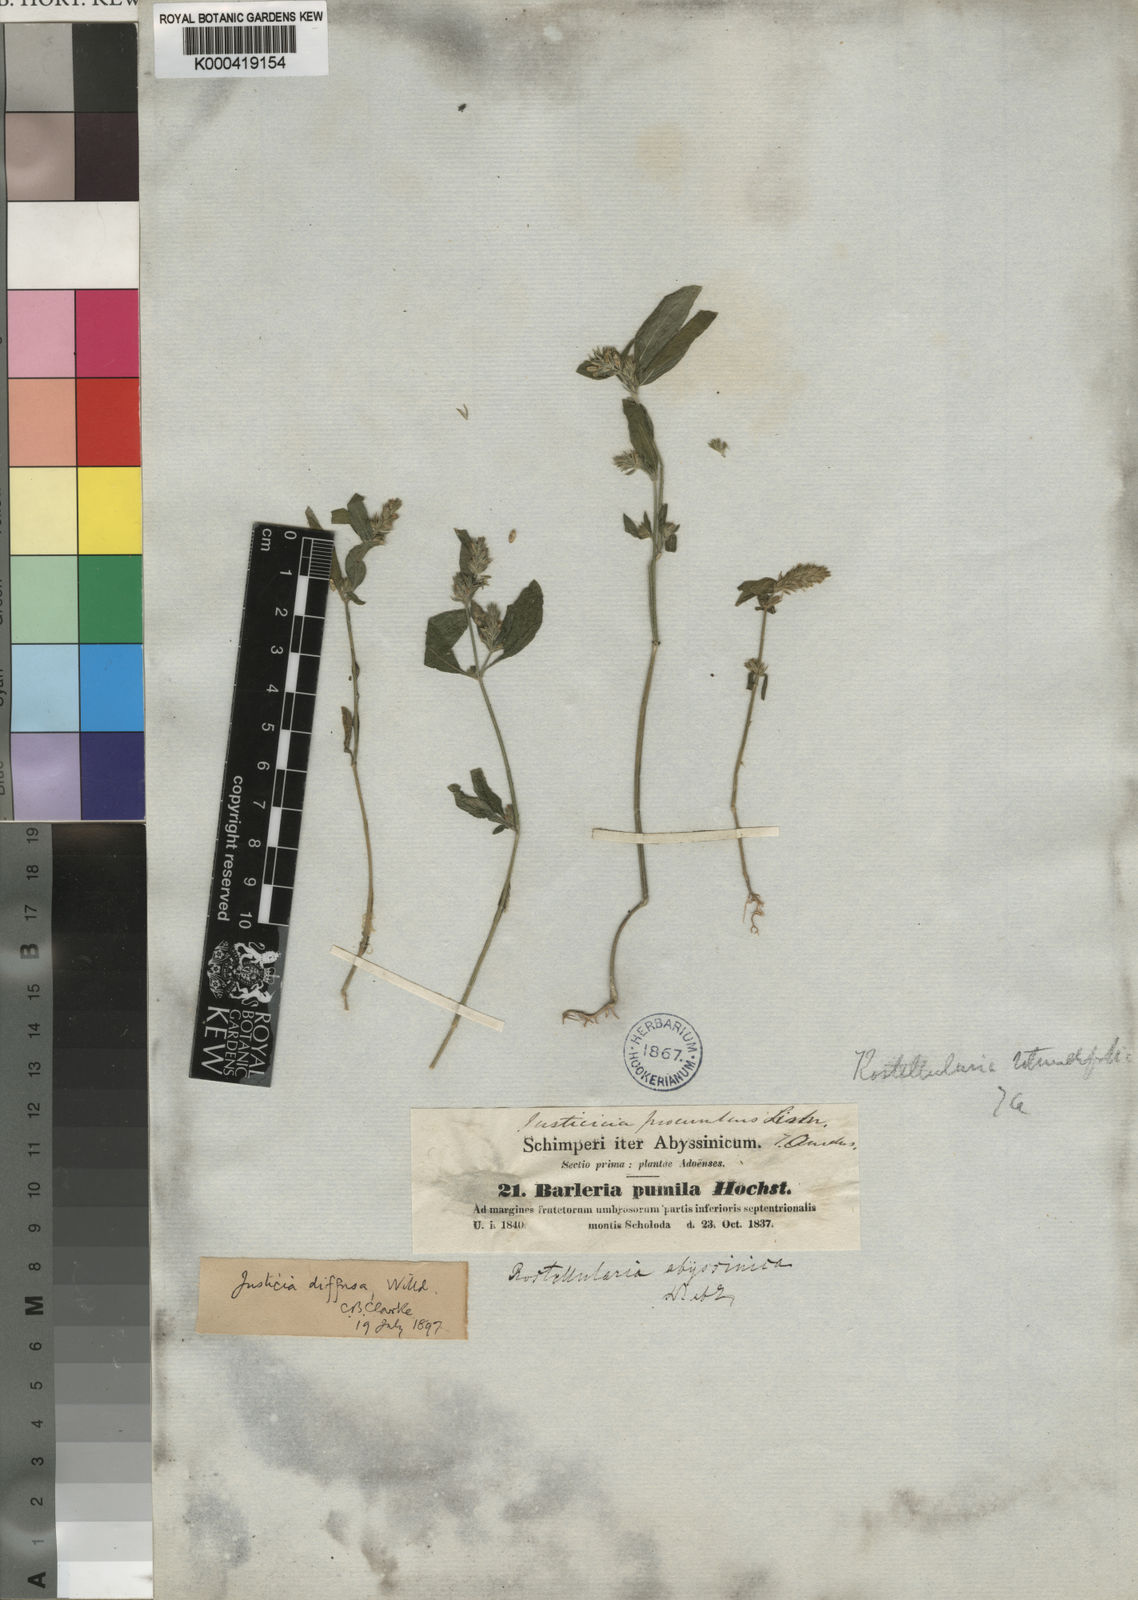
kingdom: Plantae
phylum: Tracheophyta
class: Magnoliopsida
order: Lamiales
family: Acanthaceae
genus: Rostellularia
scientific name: Rostellularia diffusa
